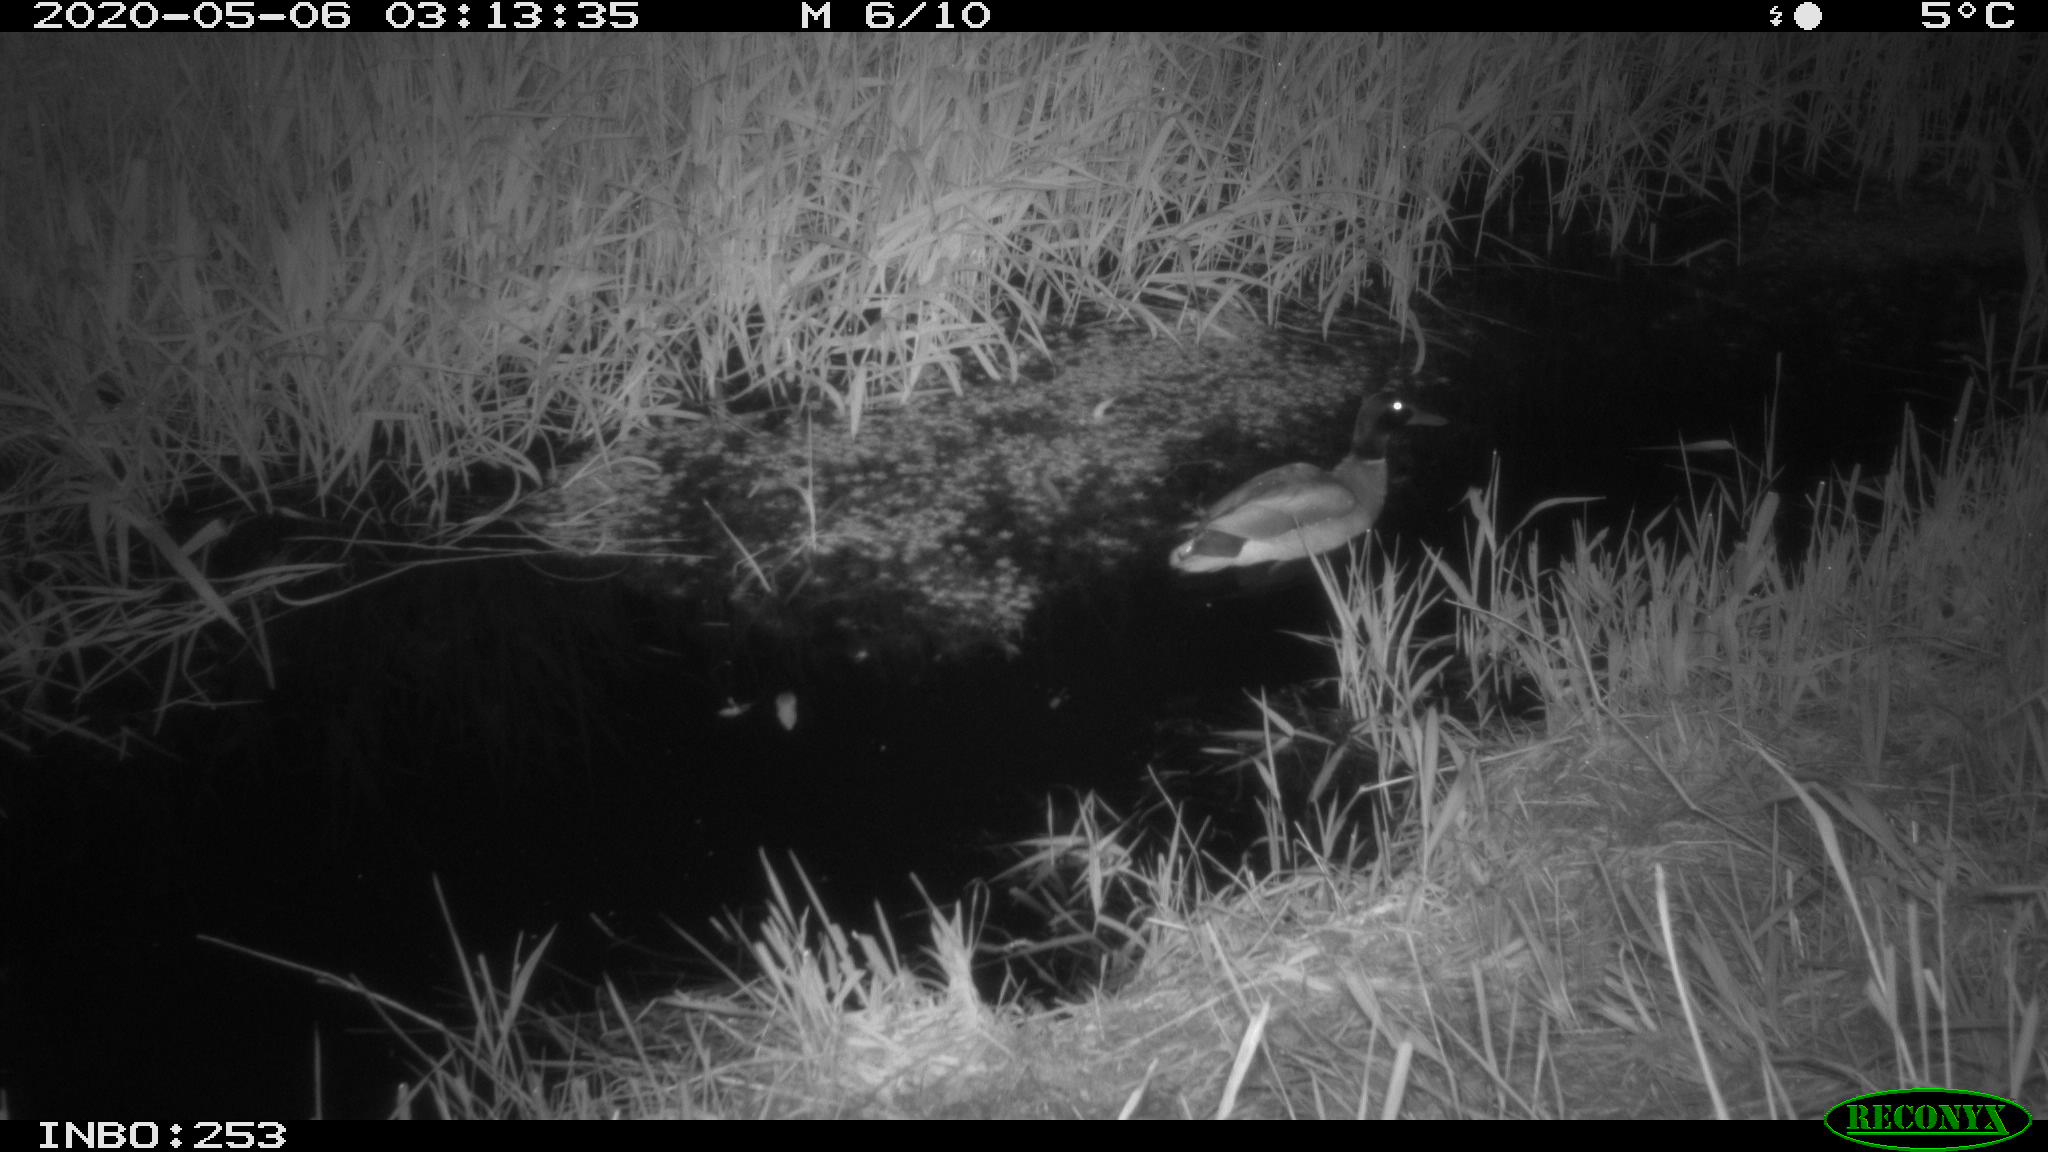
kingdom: Animalia
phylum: Chordata
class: Aves
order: Anseriformes
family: Anatidae
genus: Anas
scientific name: Anas platyrhynchos
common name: Mallard
